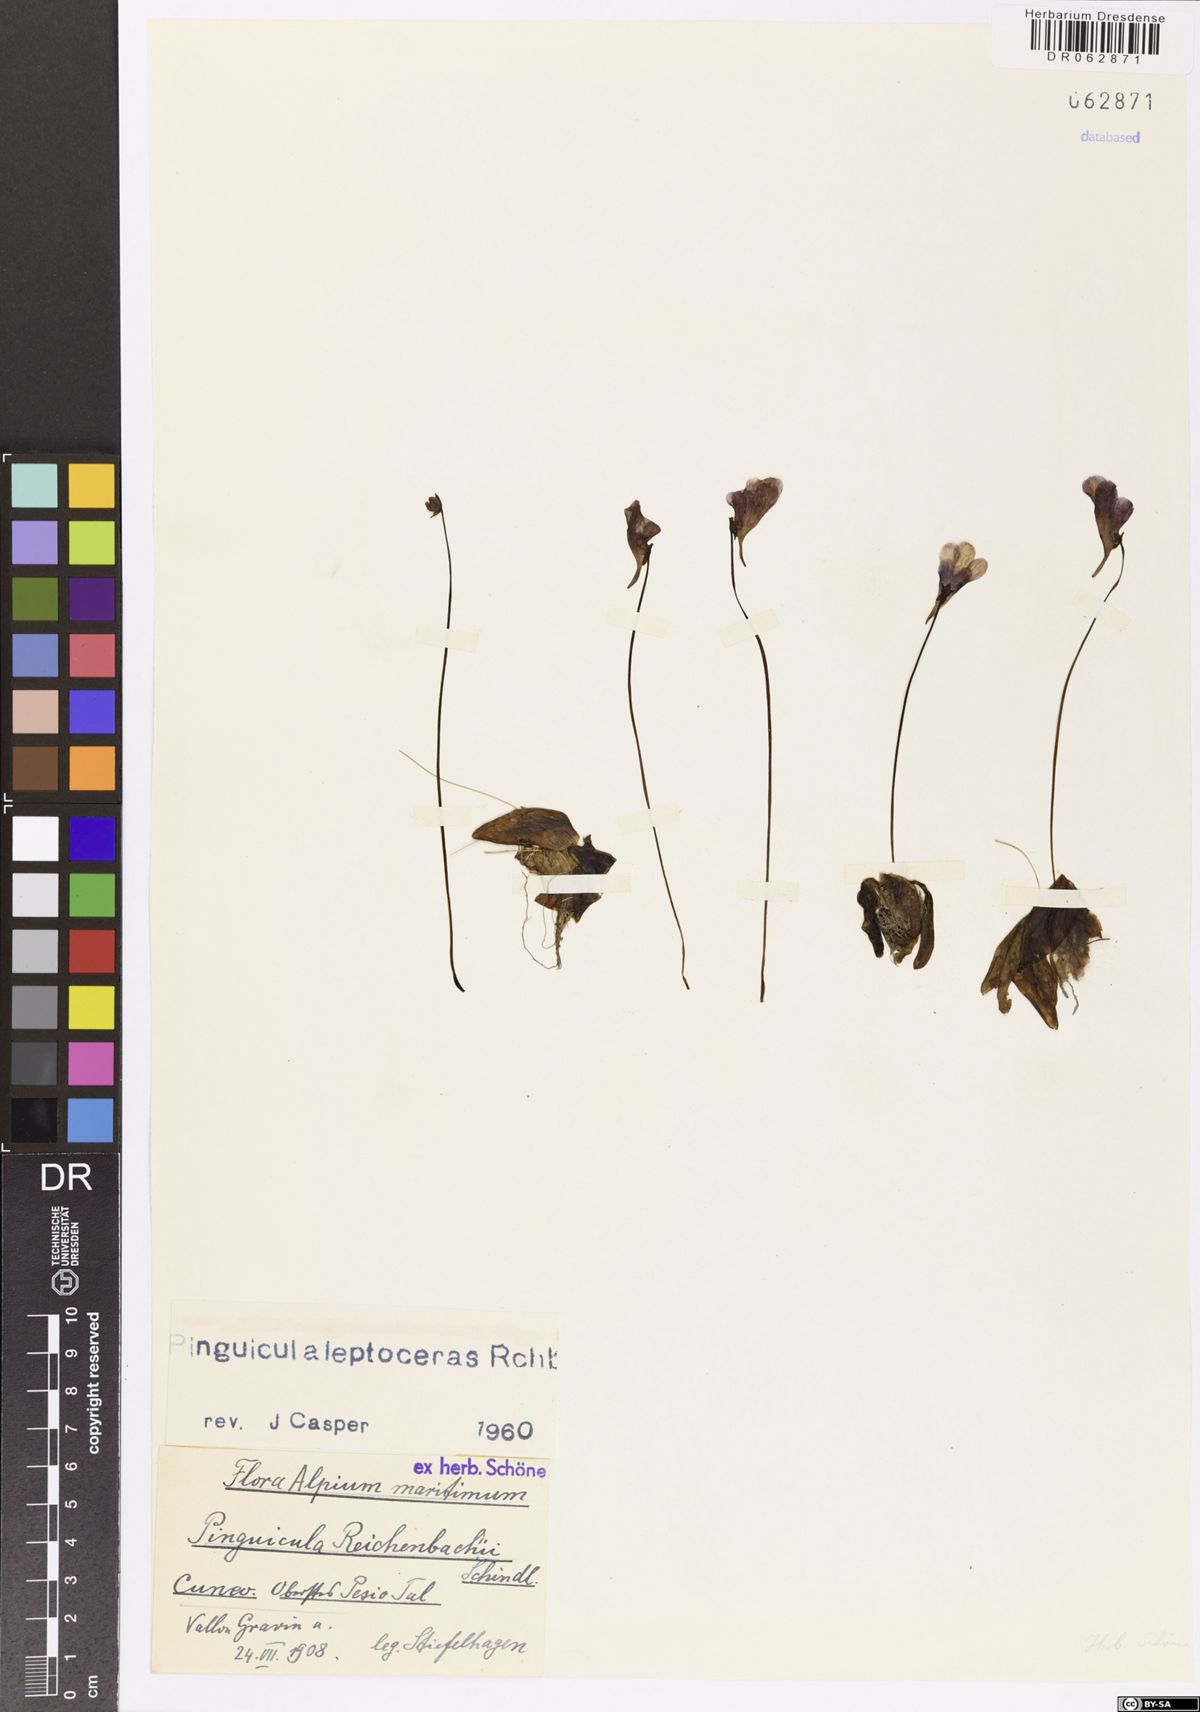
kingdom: Plantae
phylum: Tracheophyta
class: Magnoliopsida
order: Lamiales
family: Lentibulariaceae
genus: Pinguicula
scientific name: Pinguicula leptoceras
